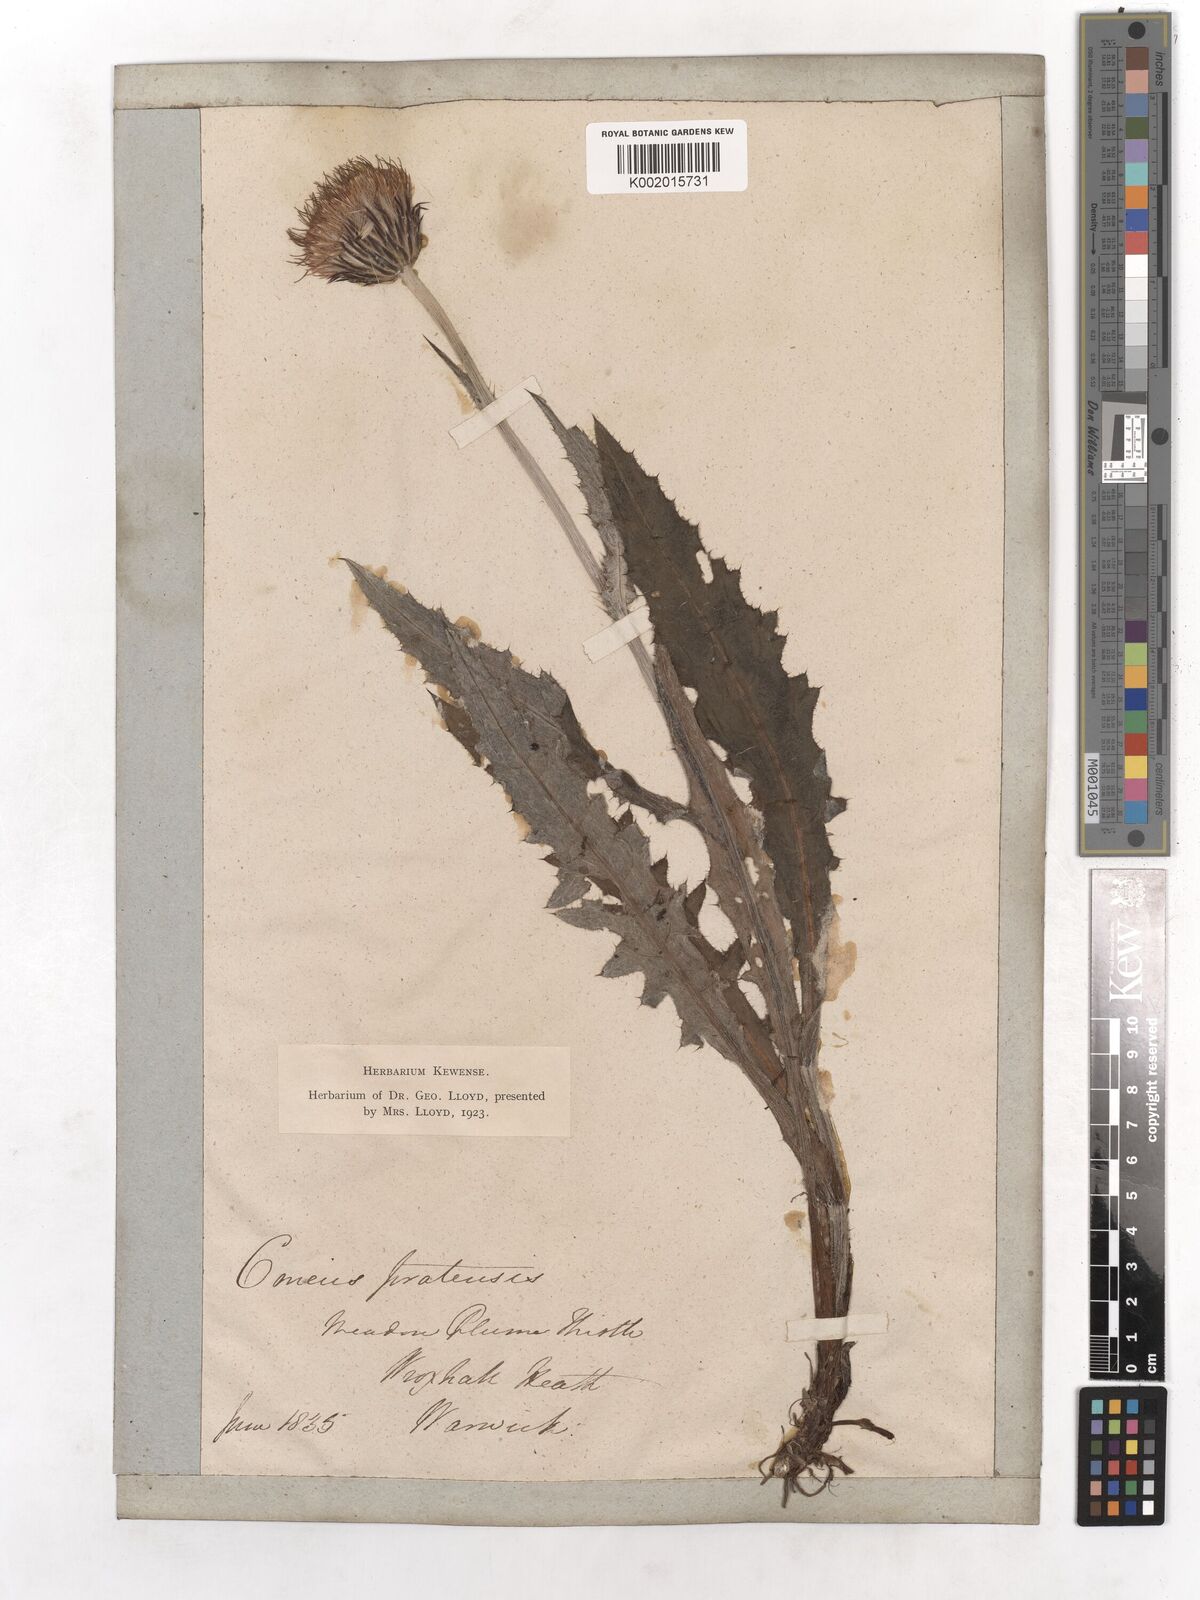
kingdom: Plantae
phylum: Tracheophyta
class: Magnoliopsida
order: Asterales
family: Asteraceae
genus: Cirsium
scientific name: Cirsium dissectum
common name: Meadow thistle
